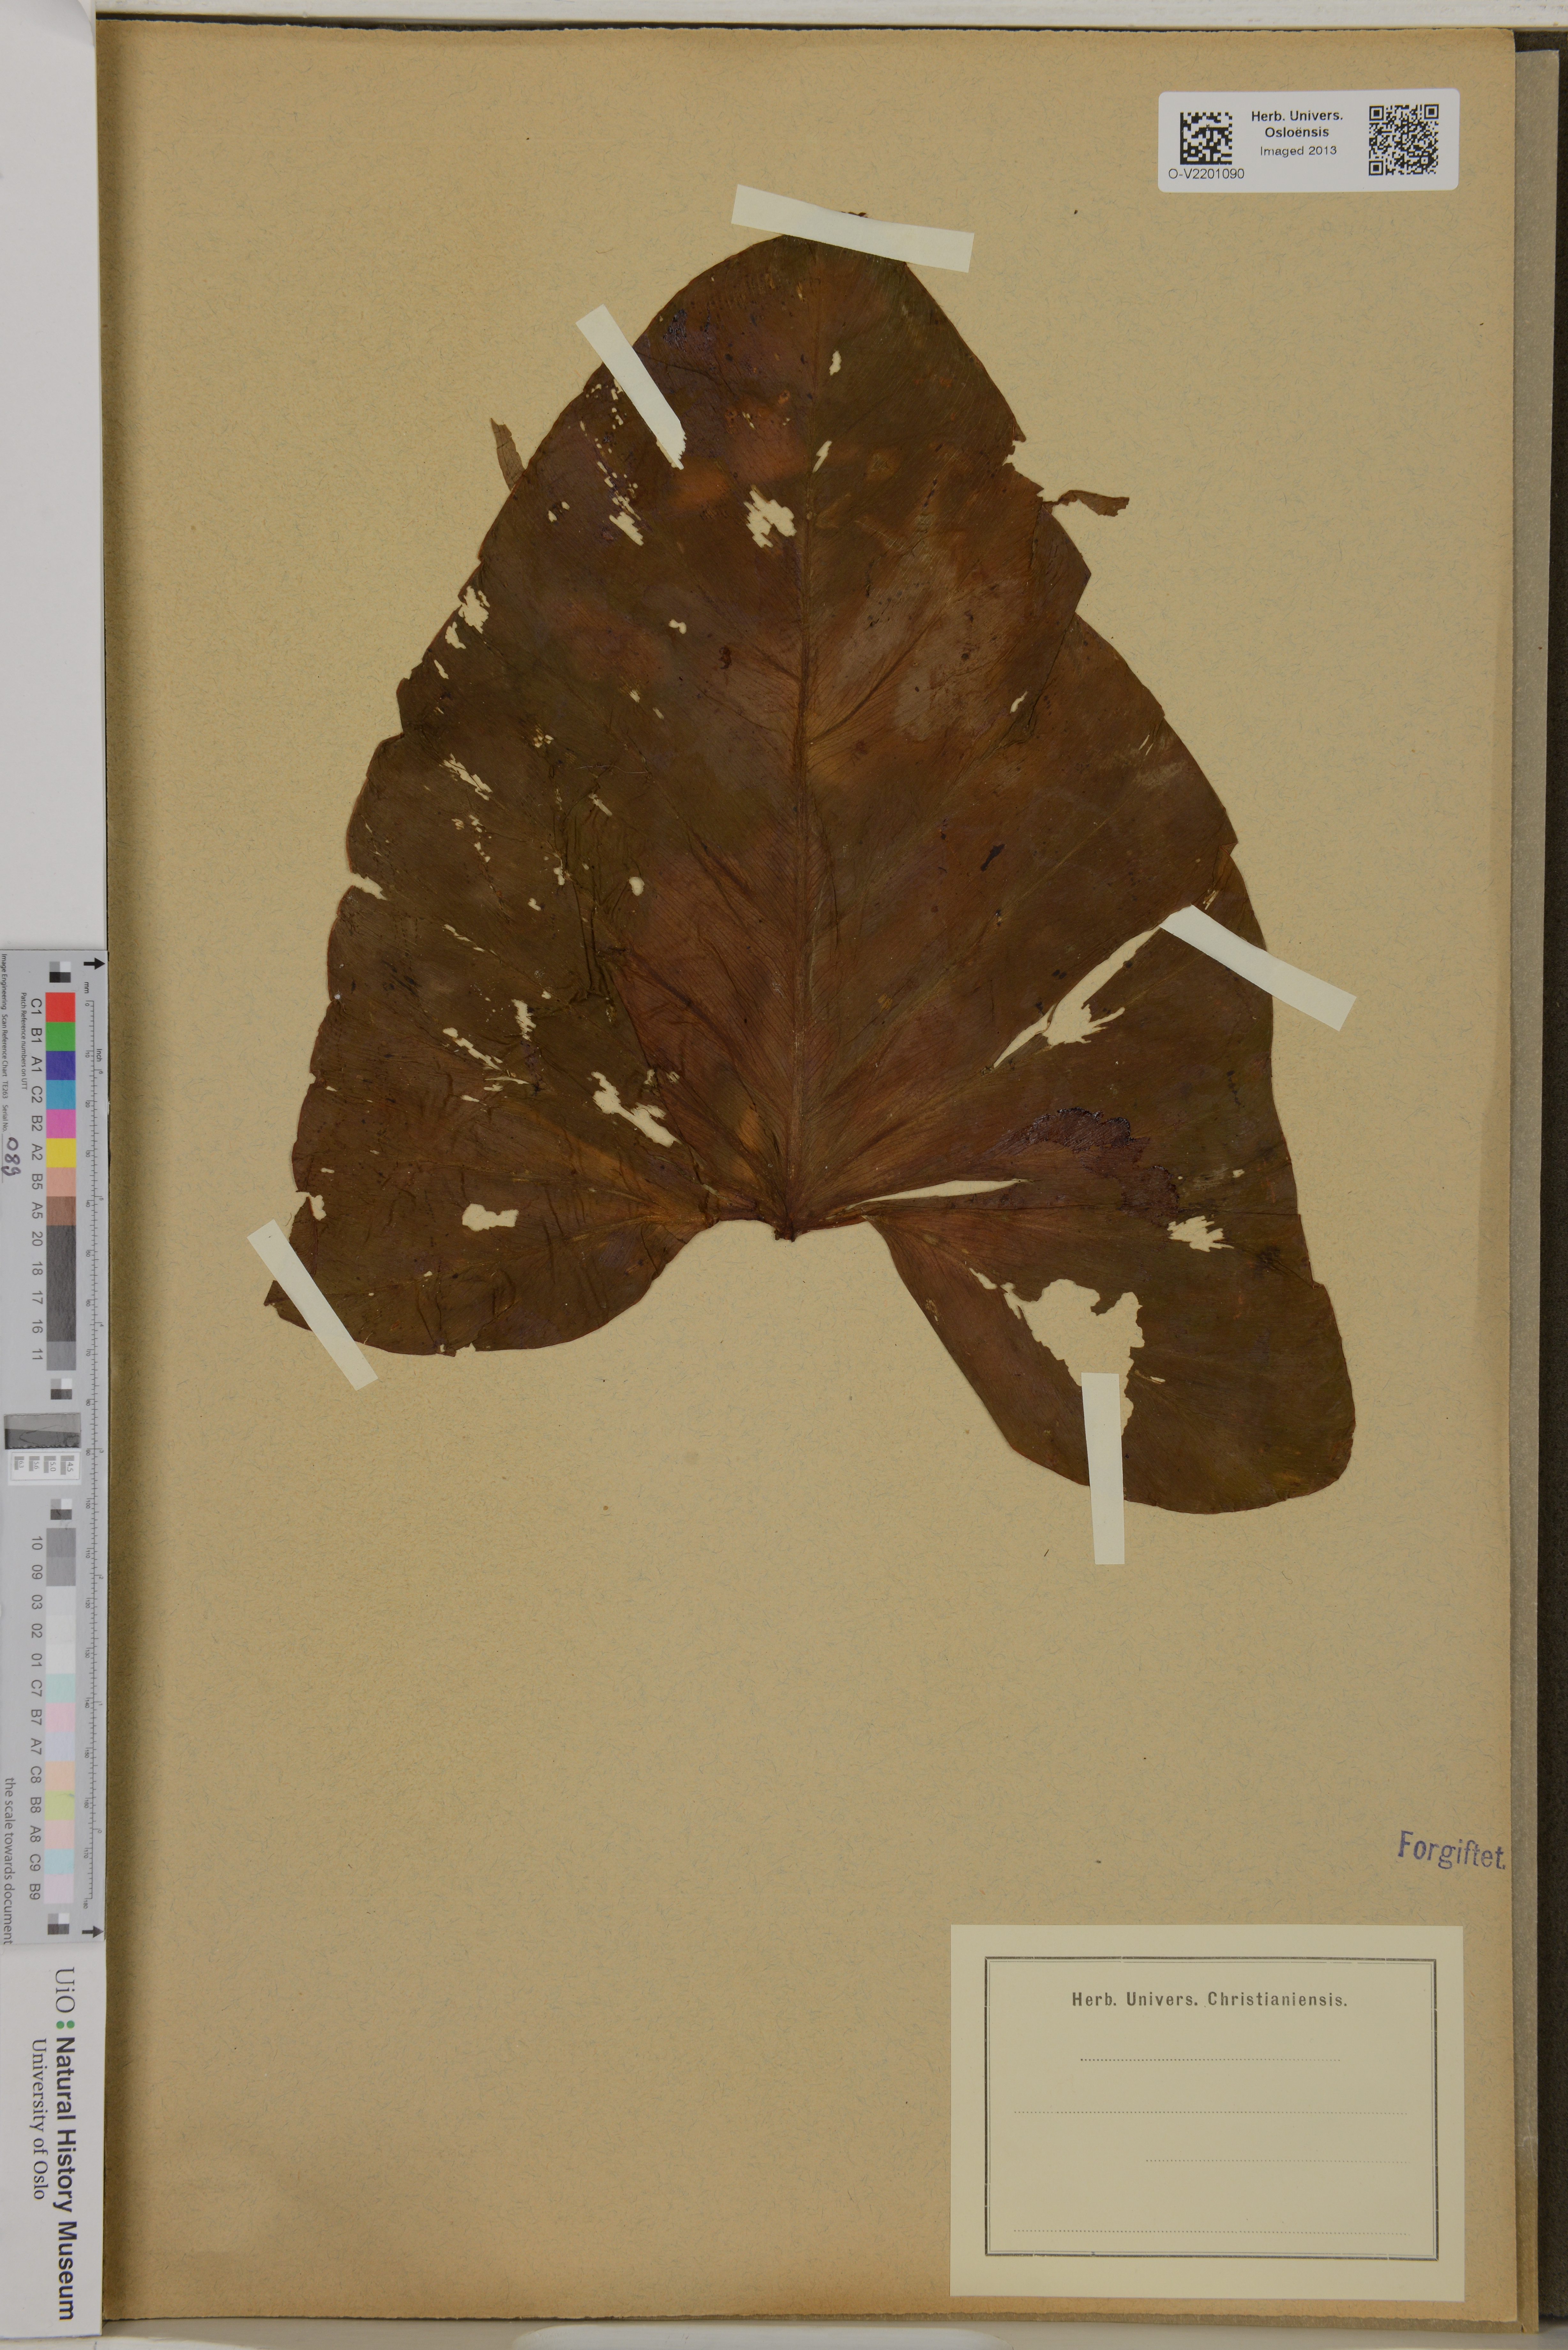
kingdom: Plantae
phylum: Tracheophyta
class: Liliopsida
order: Alismatales
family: Araceae
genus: Thaumatophyllum
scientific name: Thaumatophyllum brasiliense
